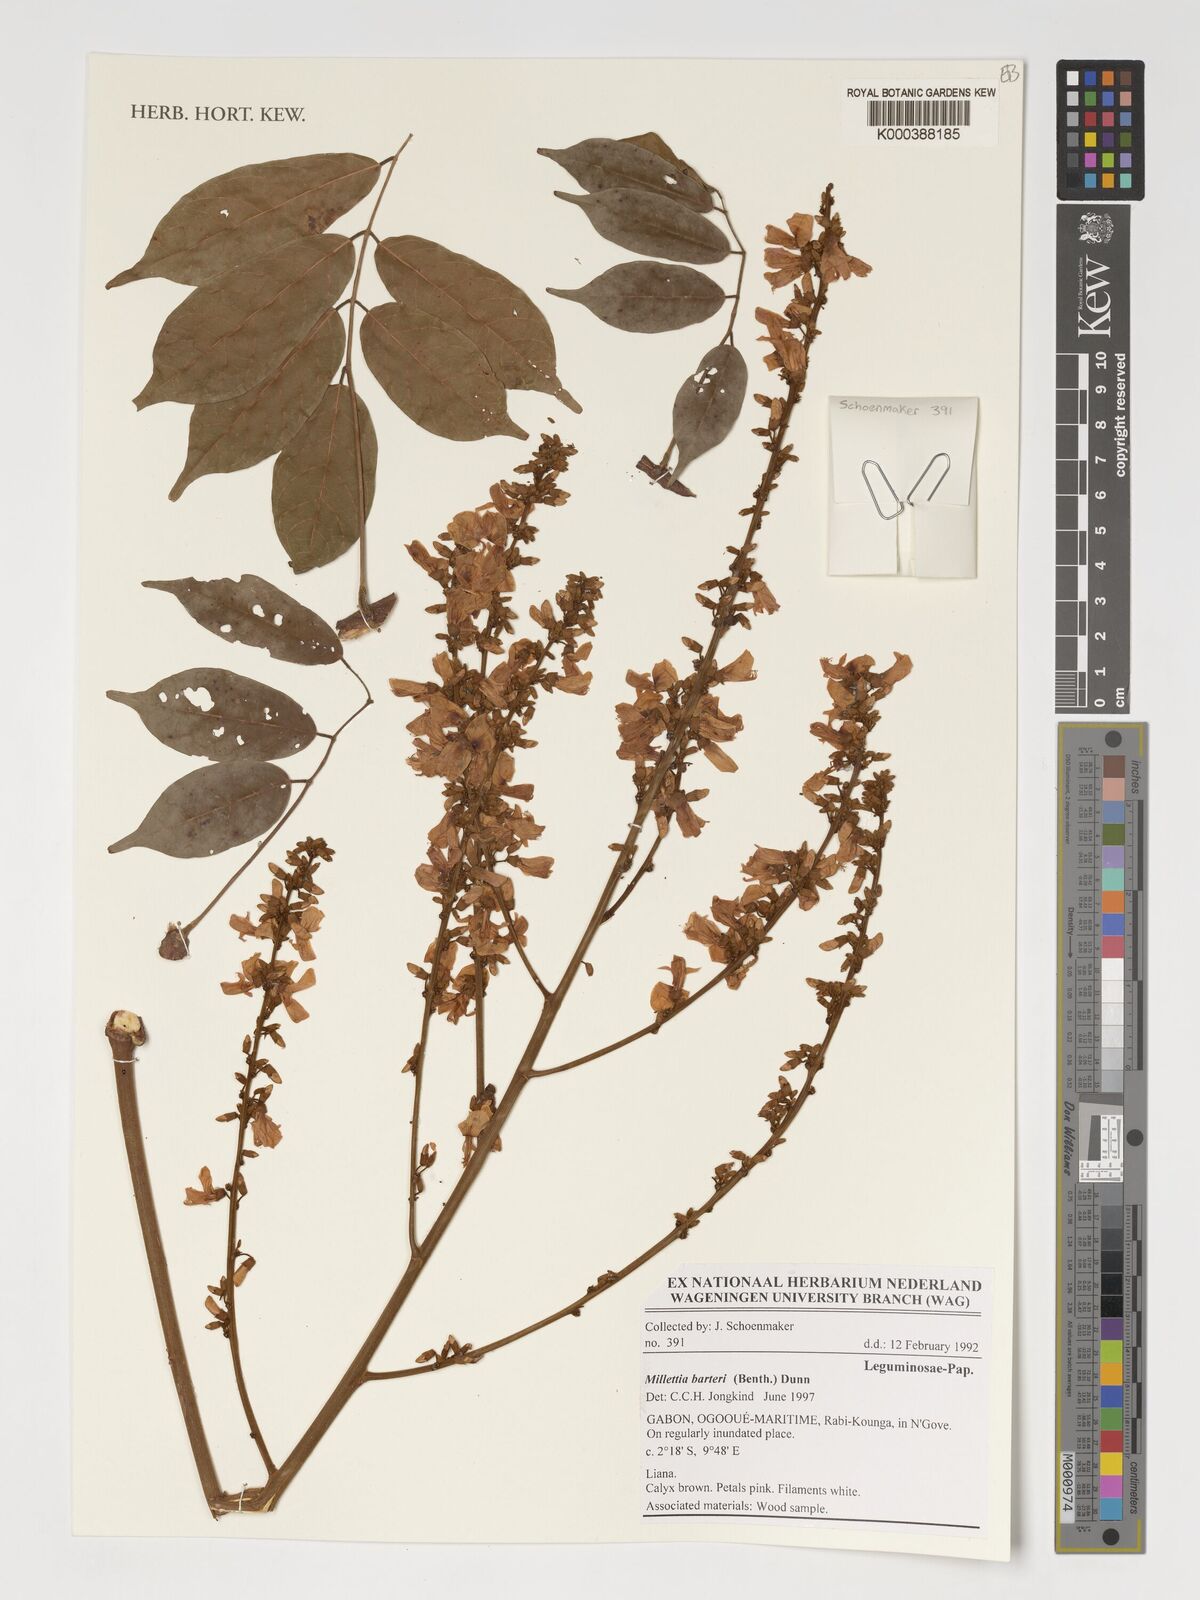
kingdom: Plantae
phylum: Tracheophyta
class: Magnoliopsida
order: Fabales
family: Fabaceae
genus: Millettia
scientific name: Millettia barteri
